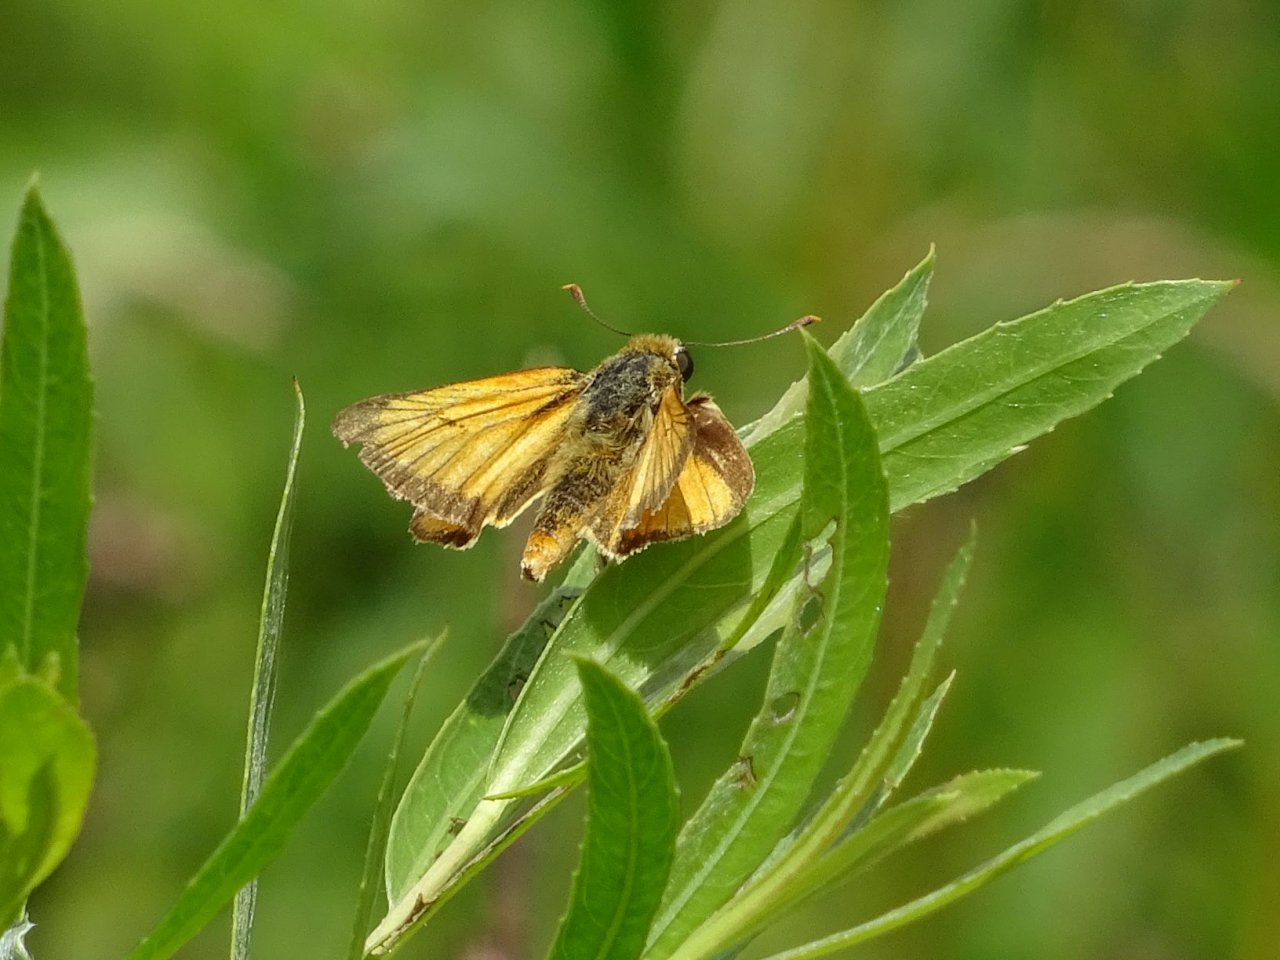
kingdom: Animalia
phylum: Arthropoda
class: Insecta
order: Lepidoptera
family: Hesperiidae
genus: Atrytone
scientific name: Atrytone delaware
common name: Delaware Skipper
